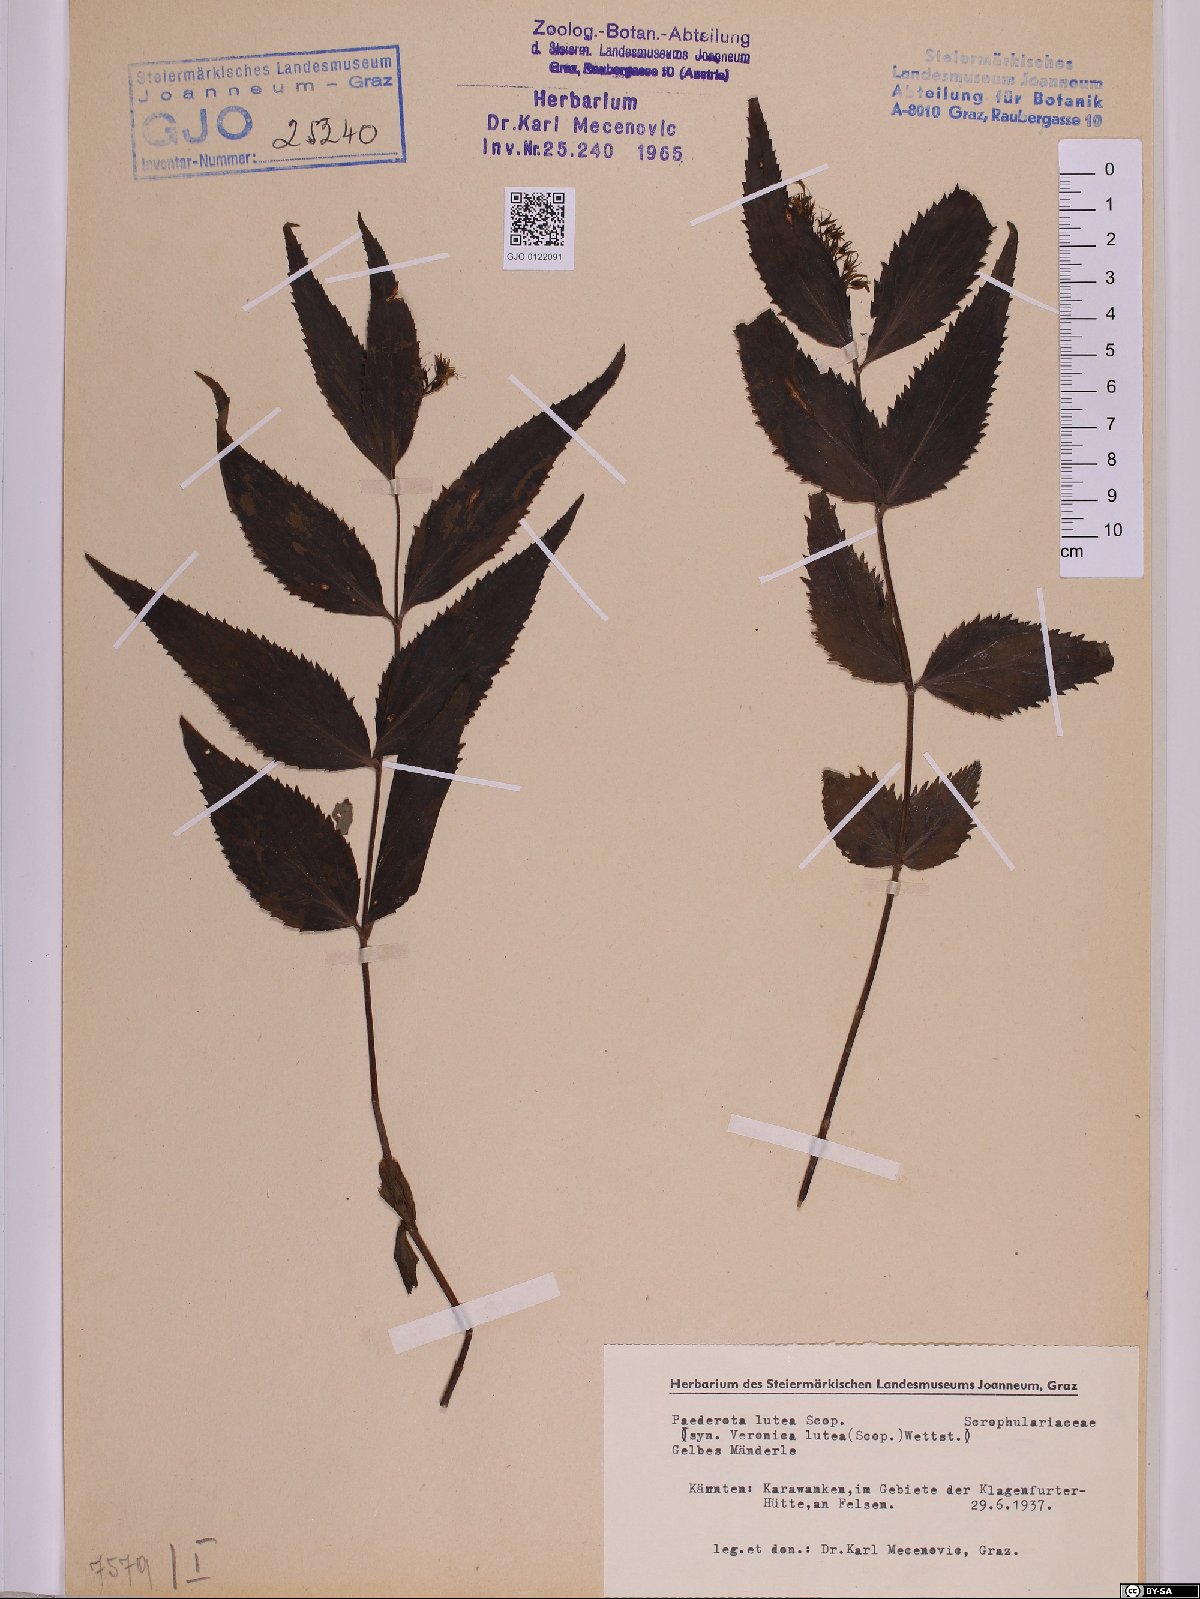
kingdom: Plantae
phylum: Tracheophyta
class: Magnoliopsida
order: Lamiales
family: Plantaginaceae
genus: Paederota
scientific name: Paederota lutea
